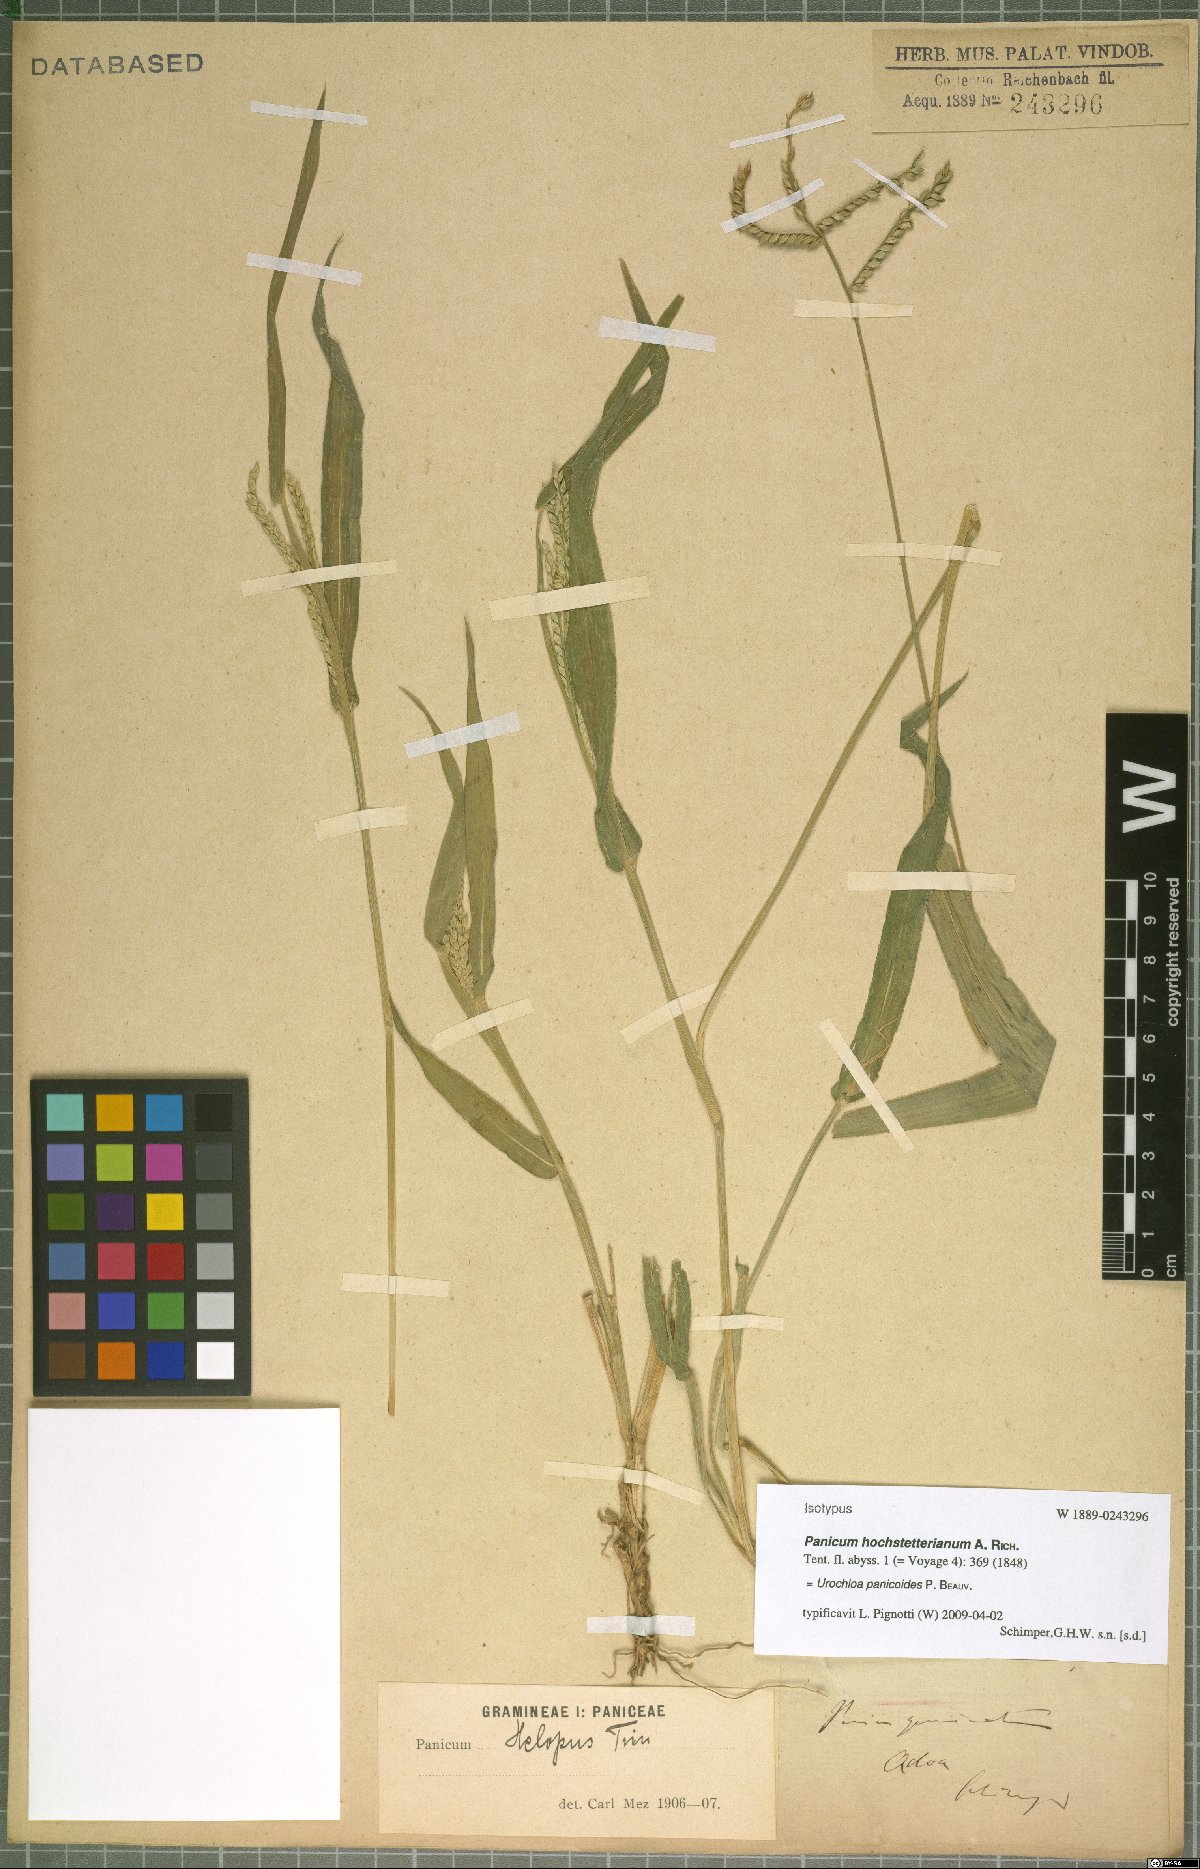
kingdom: Plantae
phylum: Tracheophyta
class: Liliopsida
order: Poales
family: Poaceae
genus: Urochloa
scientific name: Urochloa panicoides
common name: Sharp-flowered signal-grass
